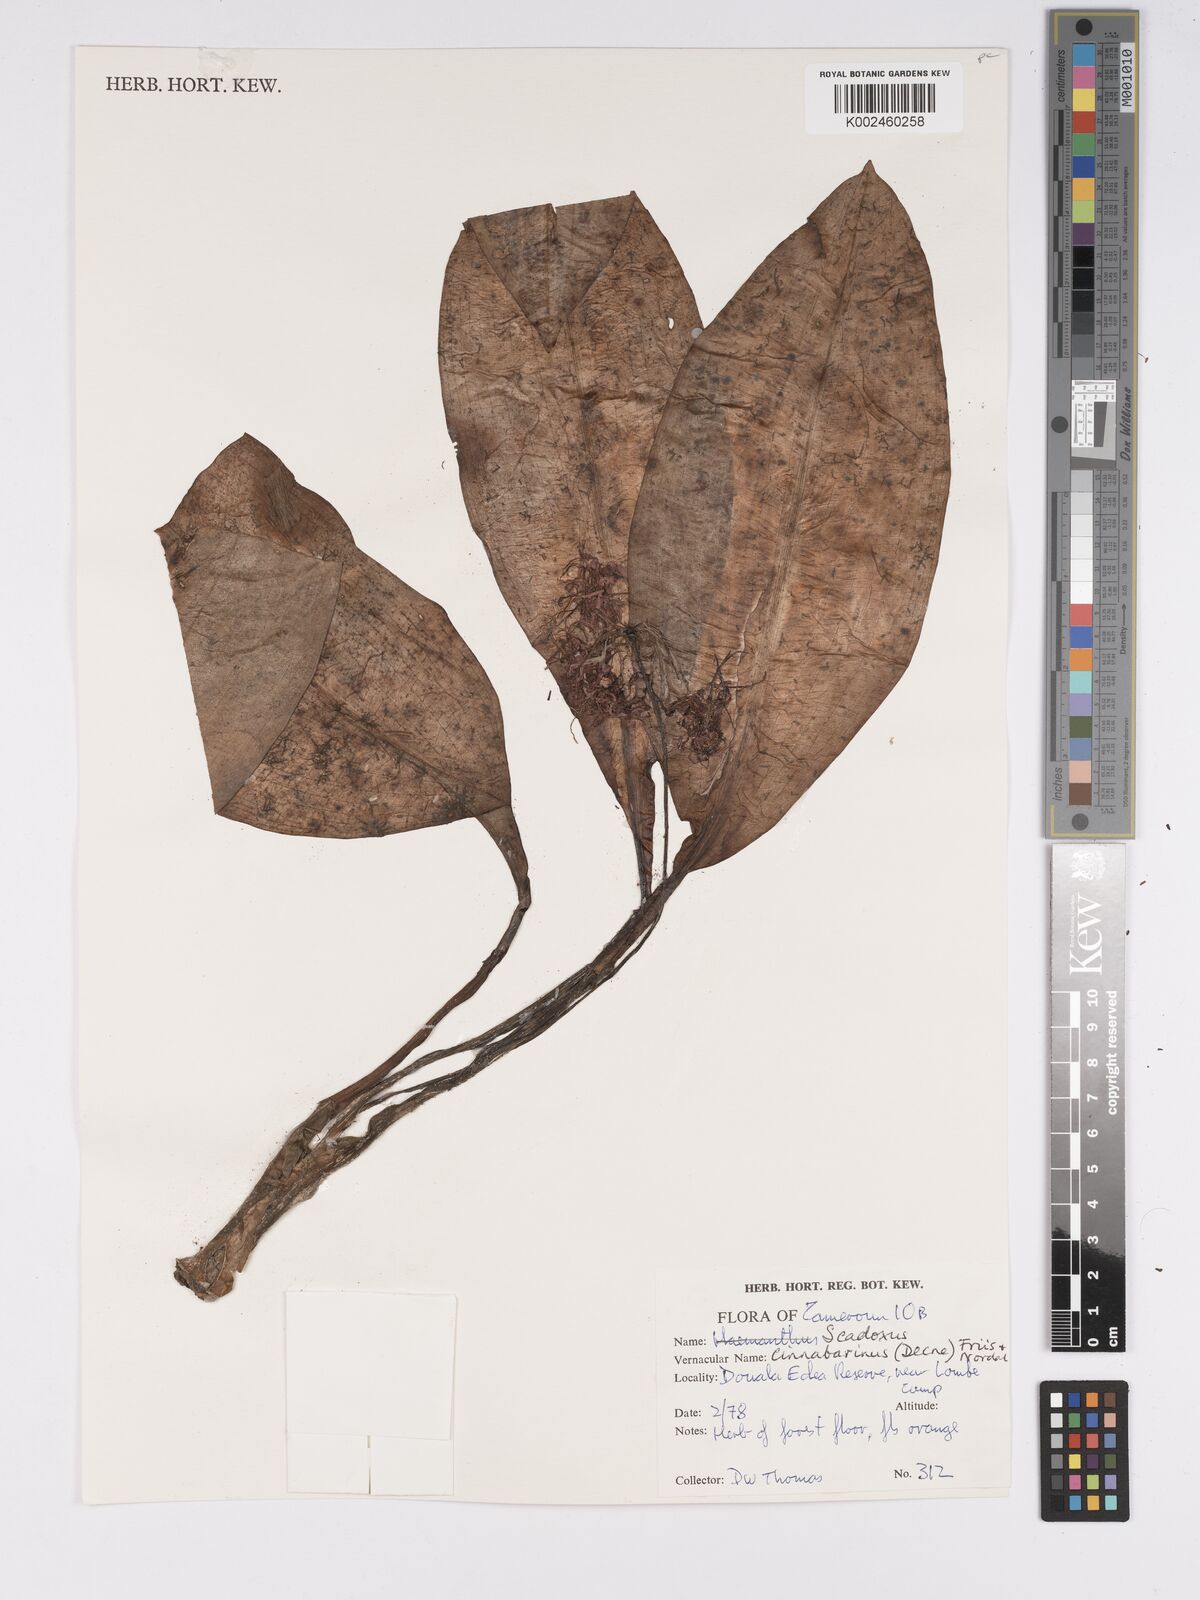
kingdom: Plantae
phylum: Tracheophyta
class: Liliopsida
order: Asparagales
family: Amaryllidaceae
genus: Scadoxus
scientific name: Scadoxus cinnabarinus
